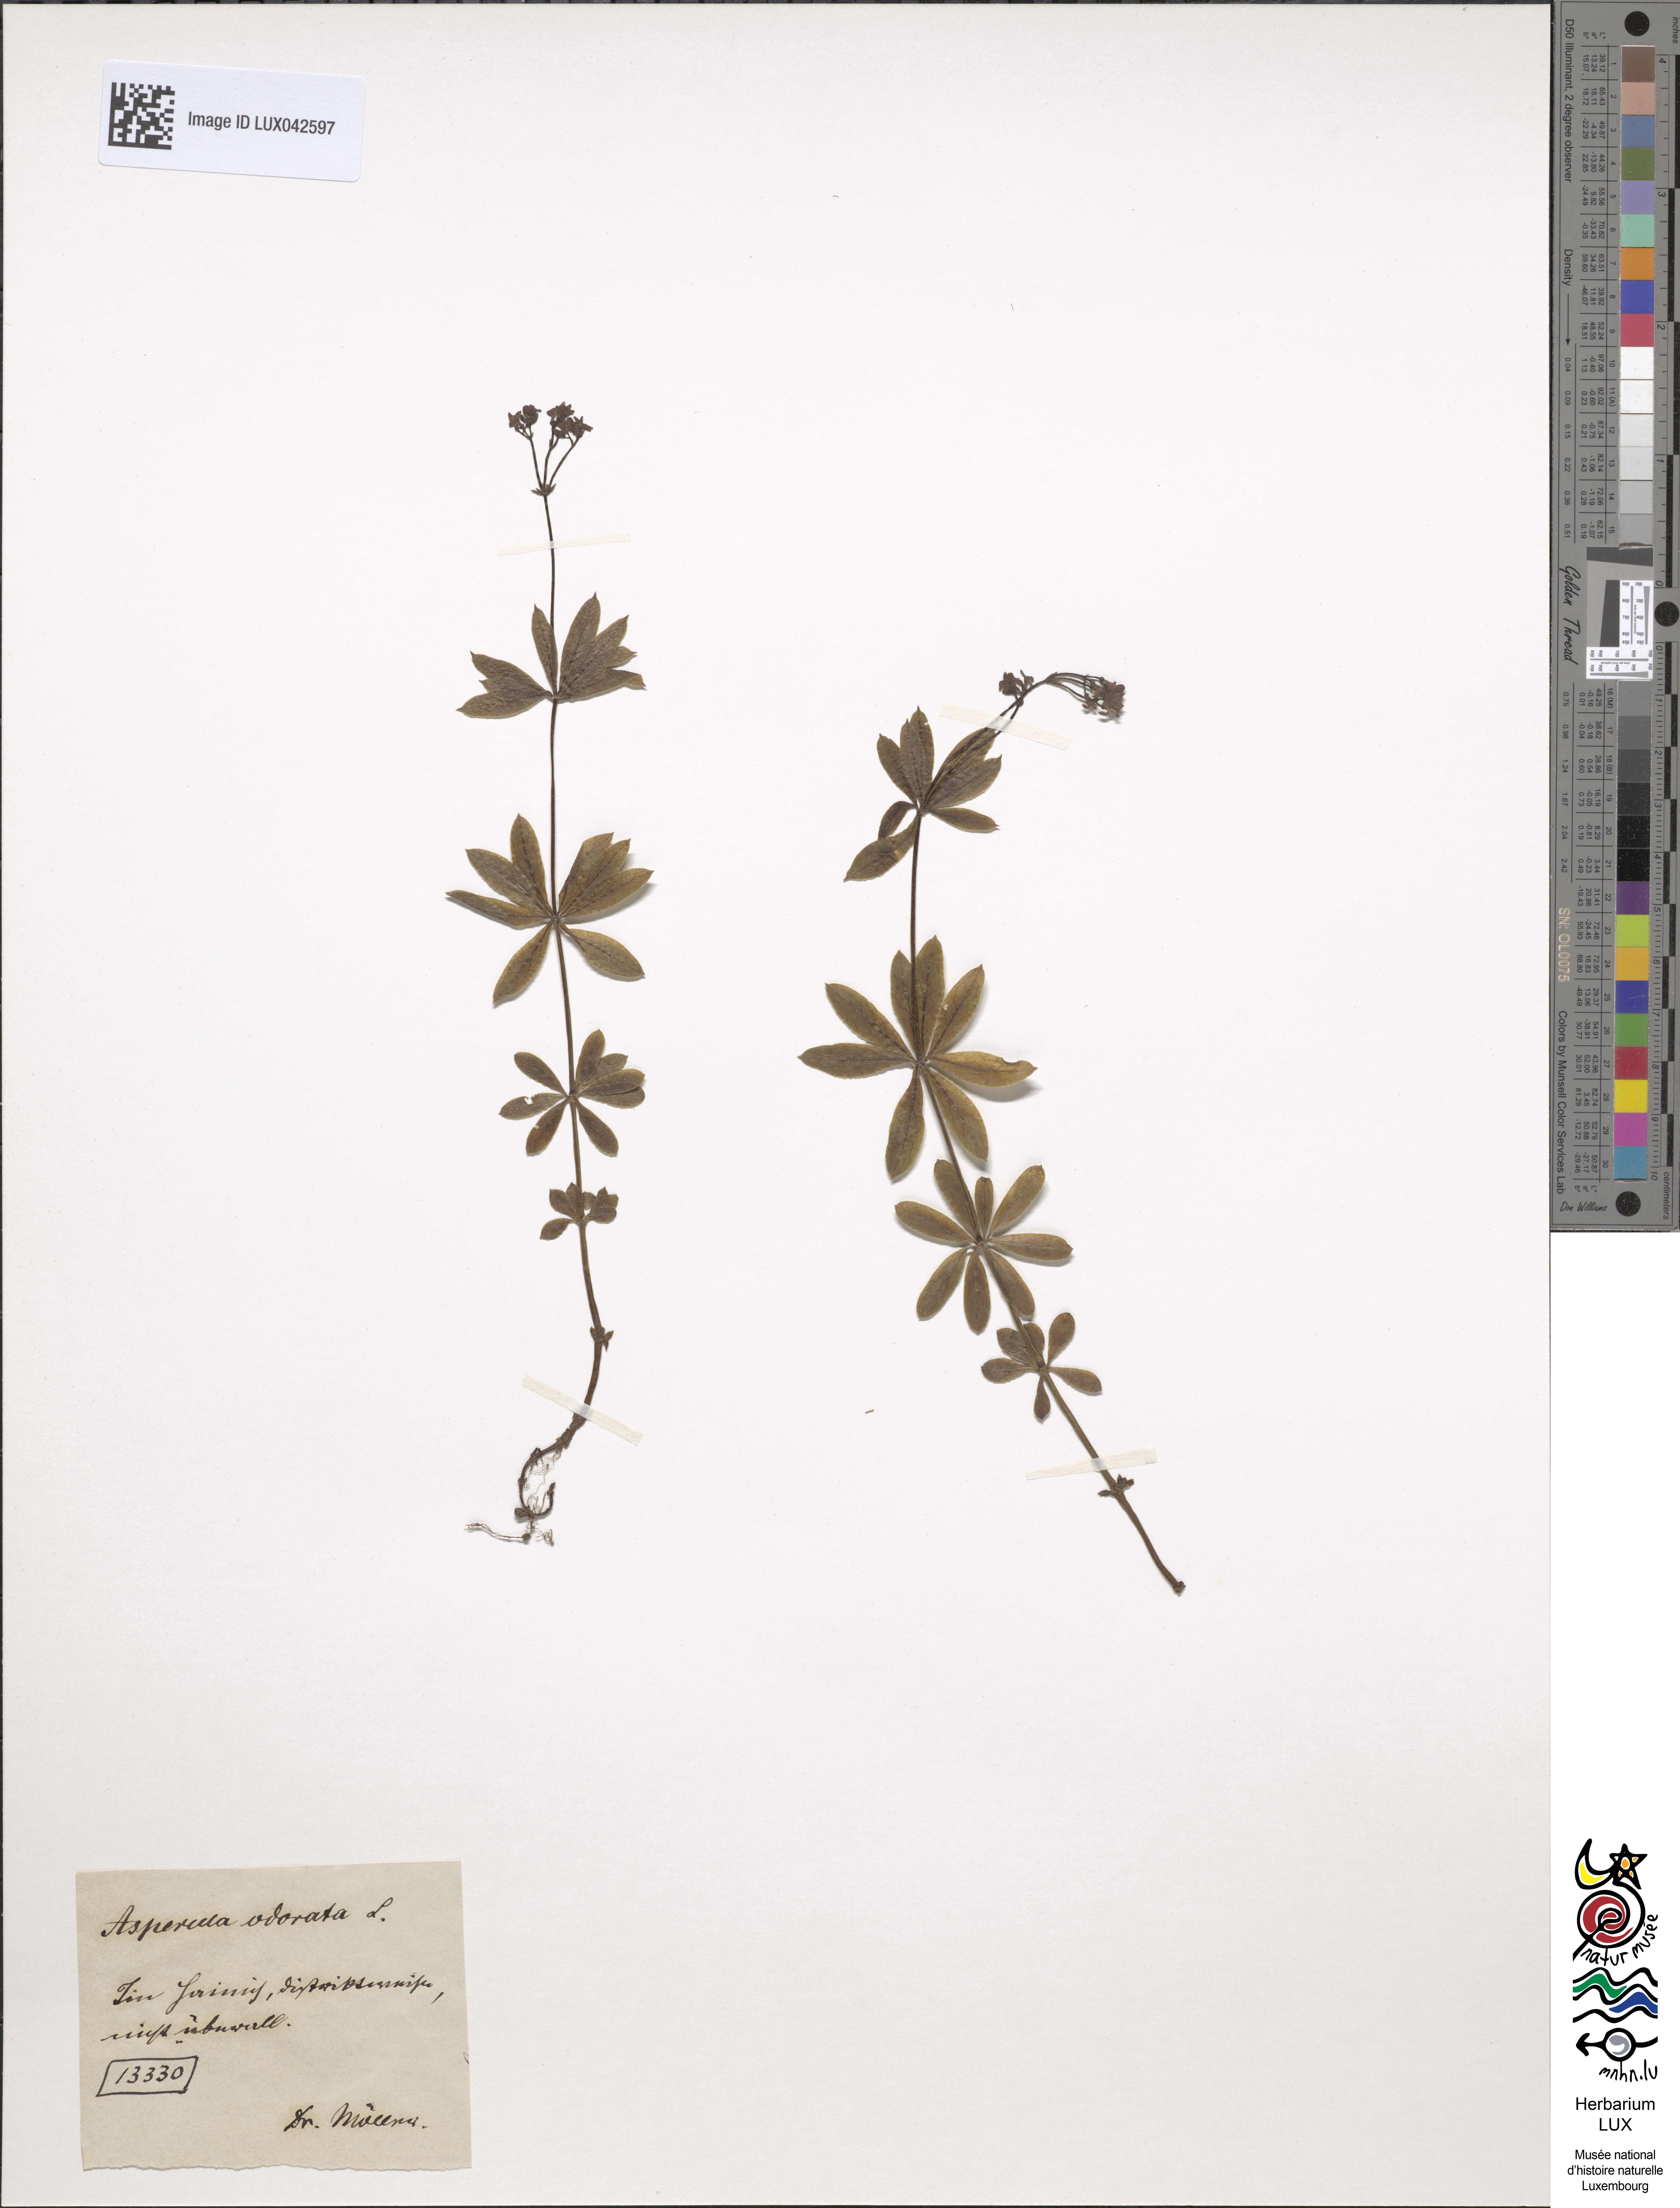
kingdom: Plantae
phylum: Tracheophyta
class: Magnoliopsida
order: Gentianales
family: Rubiaceae
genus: Galium
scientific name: Galium odoratum
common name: Sweet woodruff
